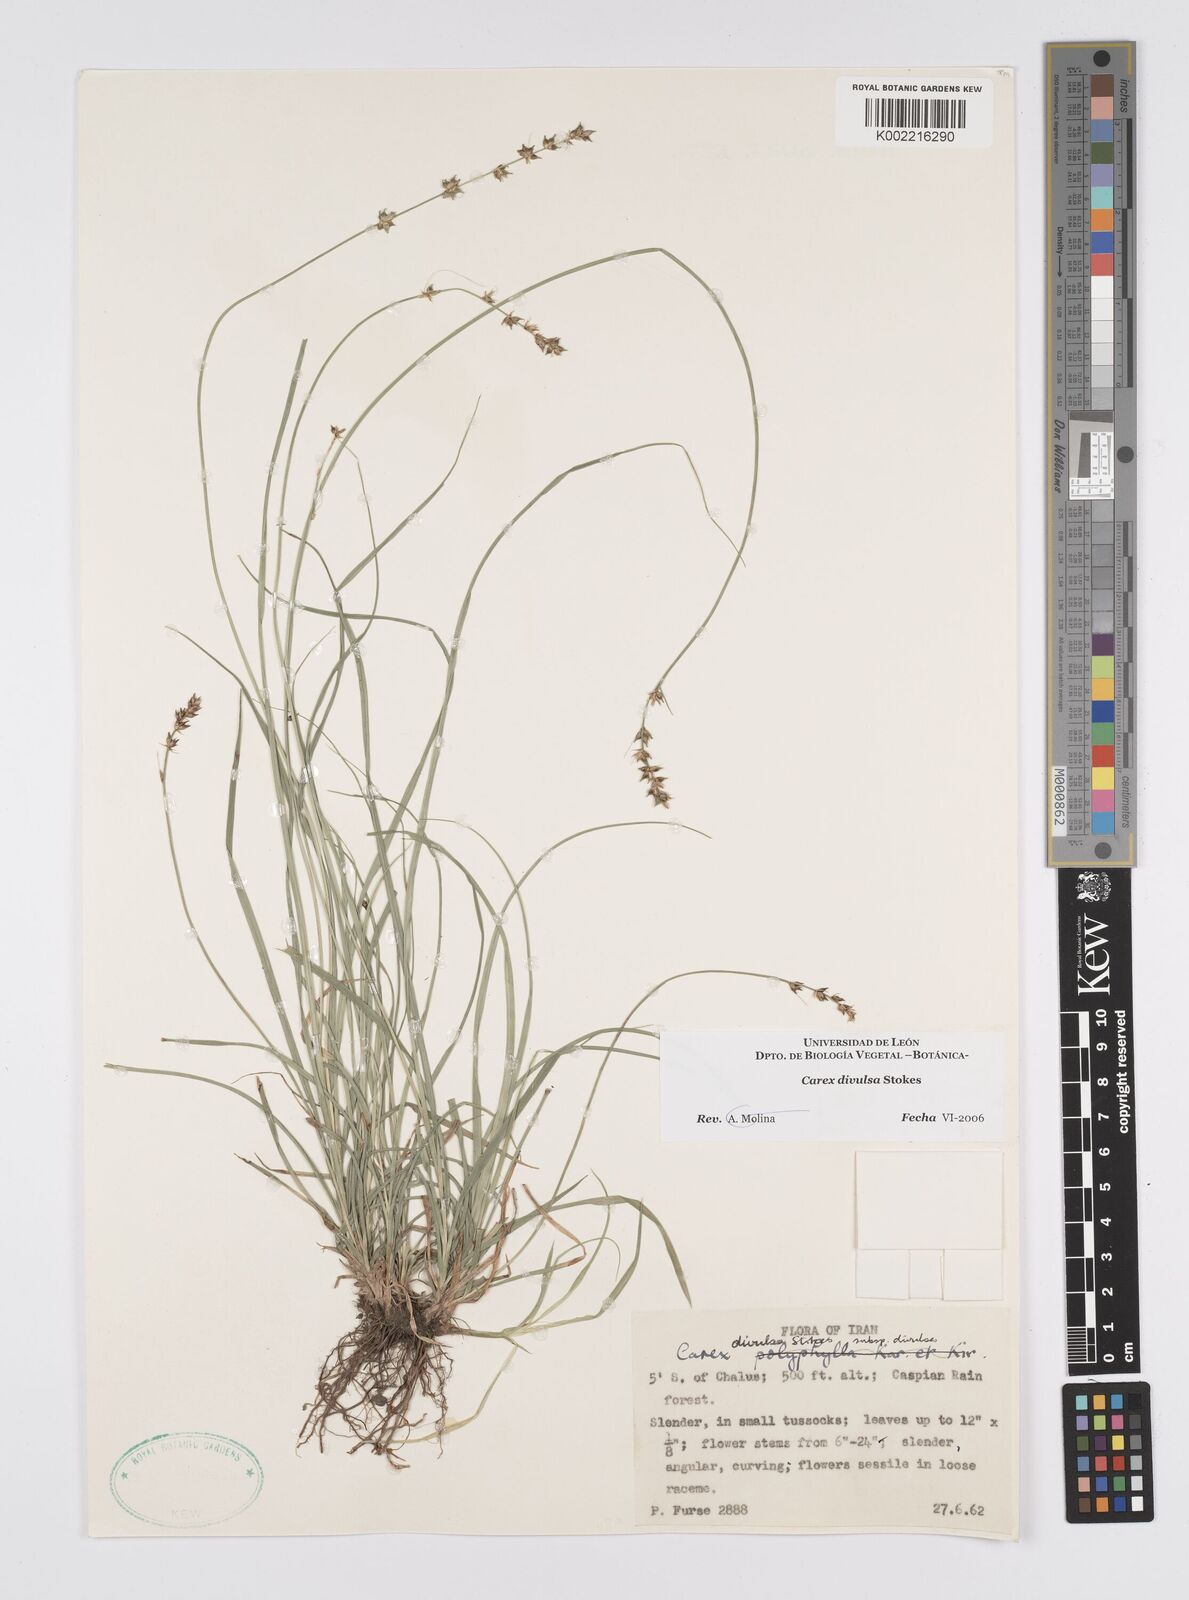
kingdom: Plantae
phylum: Tracheophyta
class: Liliopsida
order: Poales
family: Cyperaceae
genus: Carex
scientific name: Carex divulsa
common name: Grassland sedge
